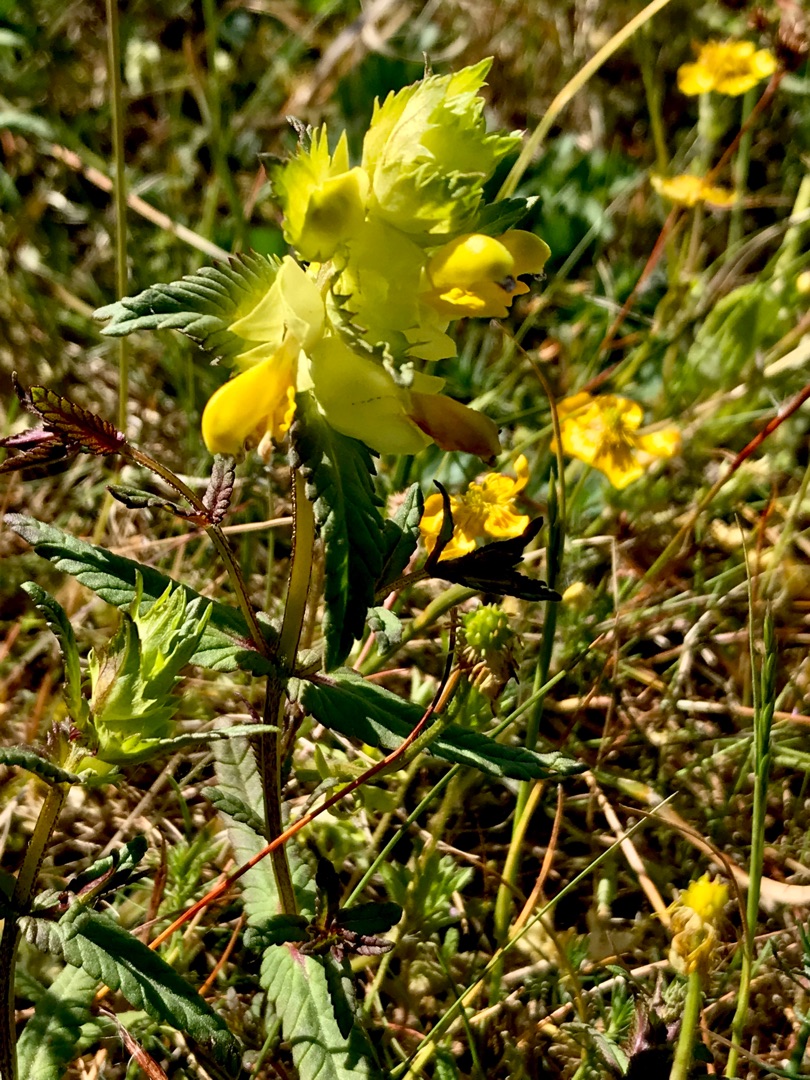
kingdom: Plantae
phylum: Tracheophyta
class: Magnoliopsida
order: Lamiales
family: Orobanchaceae
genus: Rhinanthus
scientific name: Rhinanthus
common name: Stor skjaller
